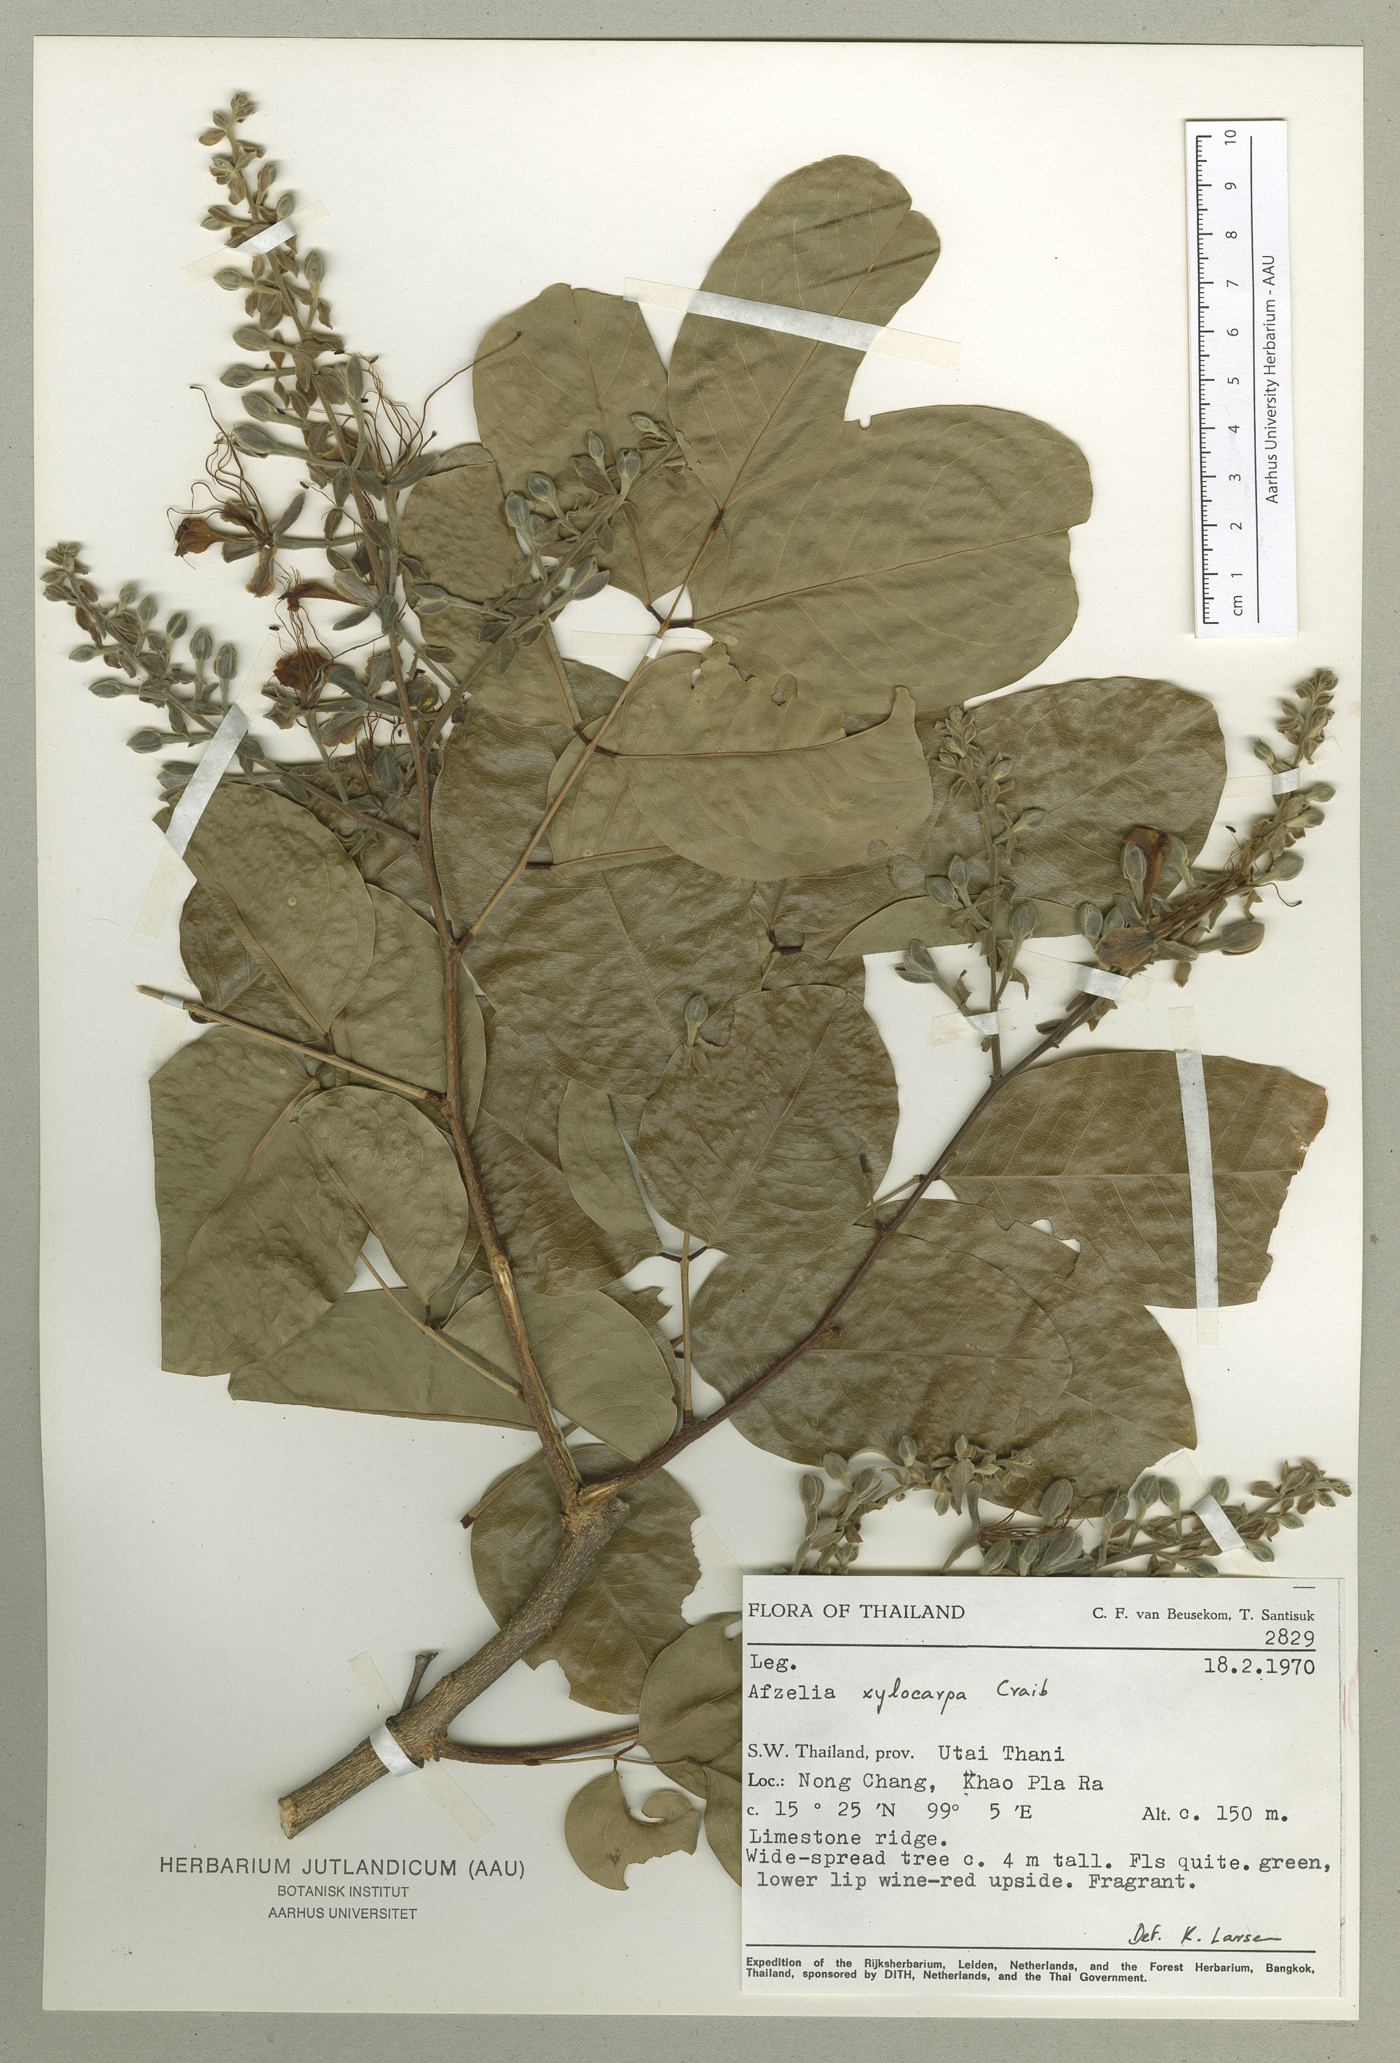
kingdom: Plantae
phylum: Tracheophyta
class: Magnoliopsida
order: Fabales
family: Fabaceae
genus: Afzelia
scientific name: Afzelia xylocarpa
